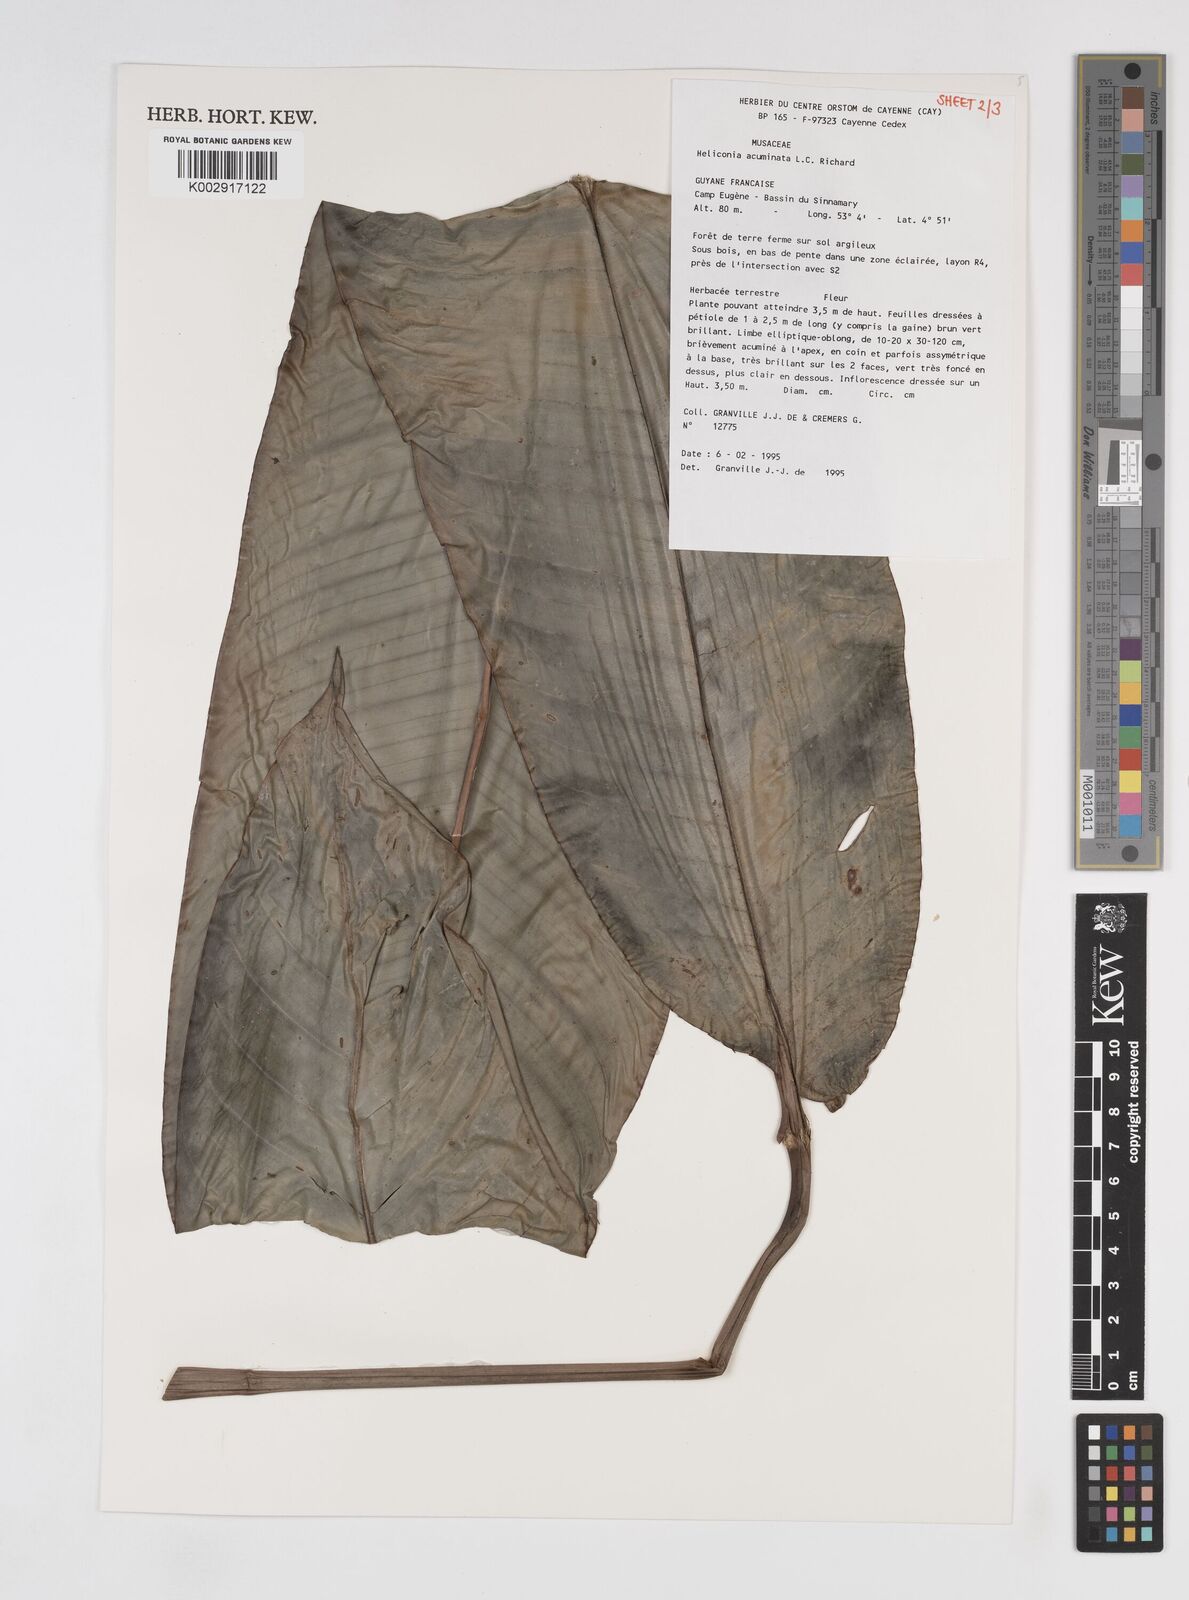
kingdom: Plantae
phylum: Tracheophyta
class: Liliopsida
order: Zingiberales
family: Heliconiaceae
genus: Heliconia
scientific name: Heliconia acuminata
